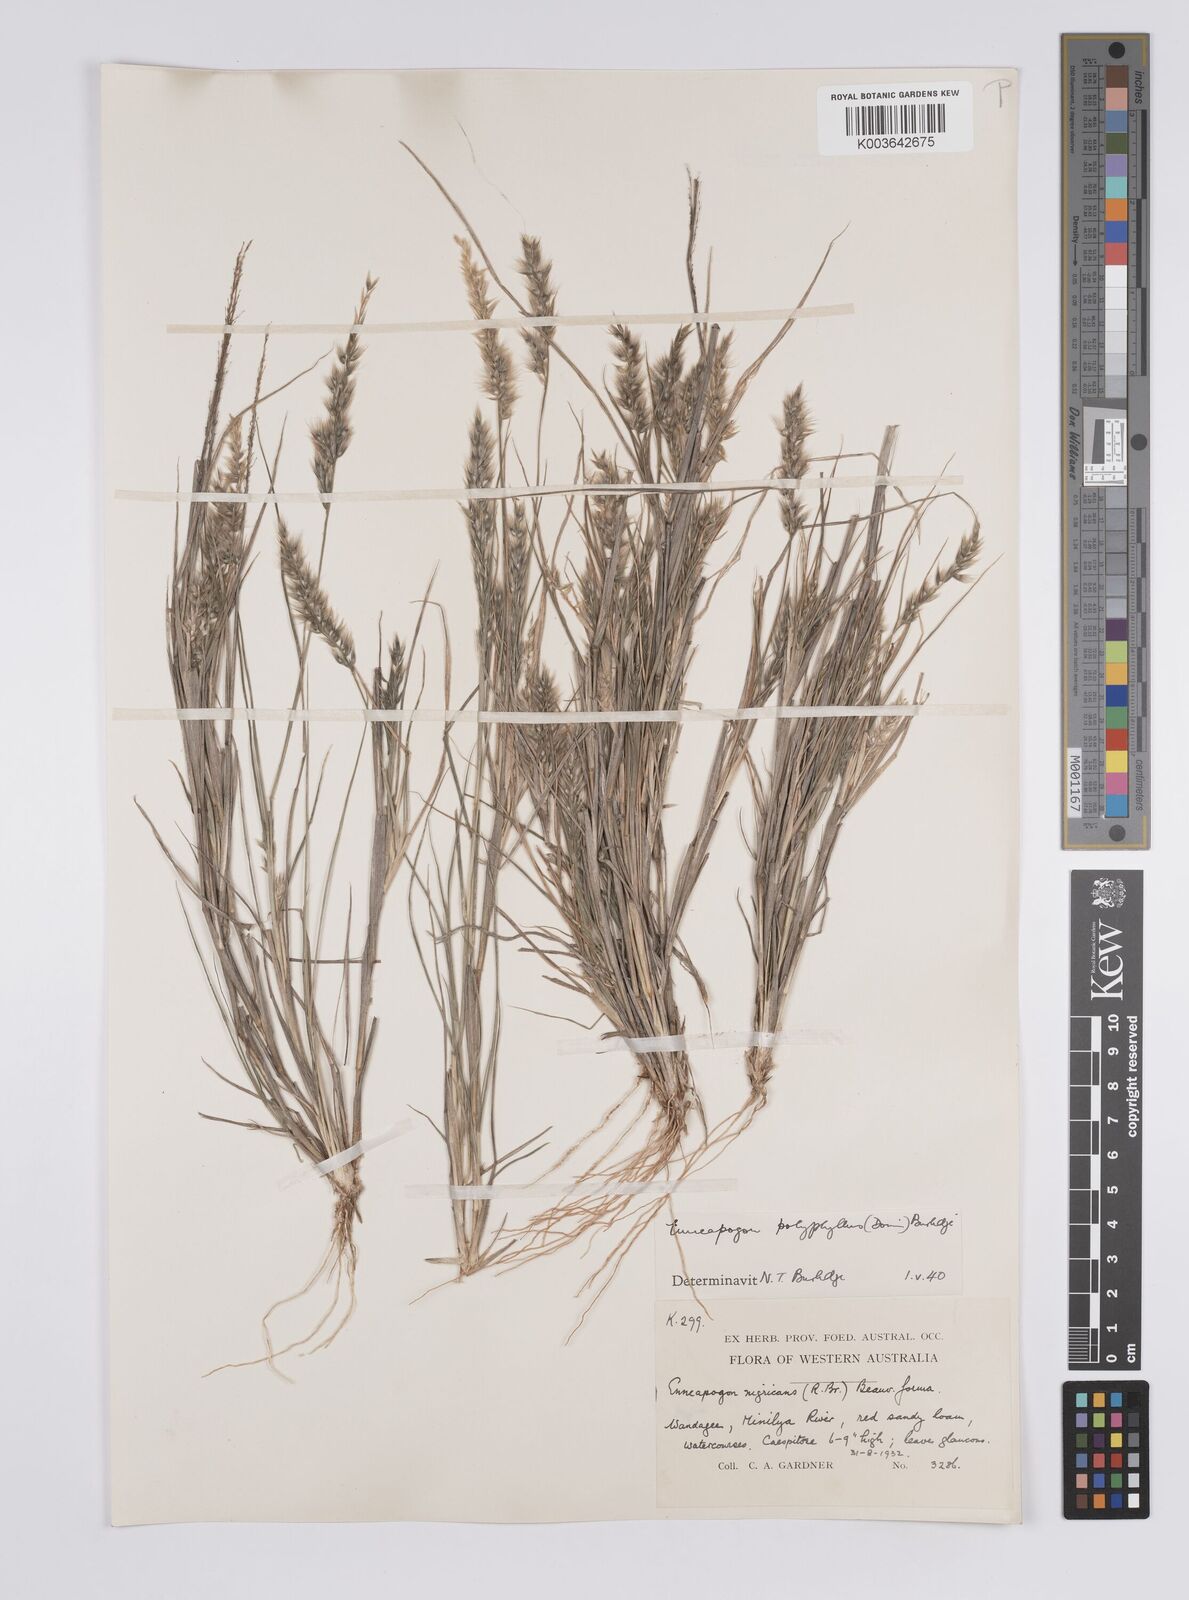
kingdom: Plantae
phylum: Tracheophyta
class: Liliopsida
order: Poales
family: Poaceae
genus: Enneapogon
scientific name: Enneapogon polyphyllus
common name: Leafy nineawn
